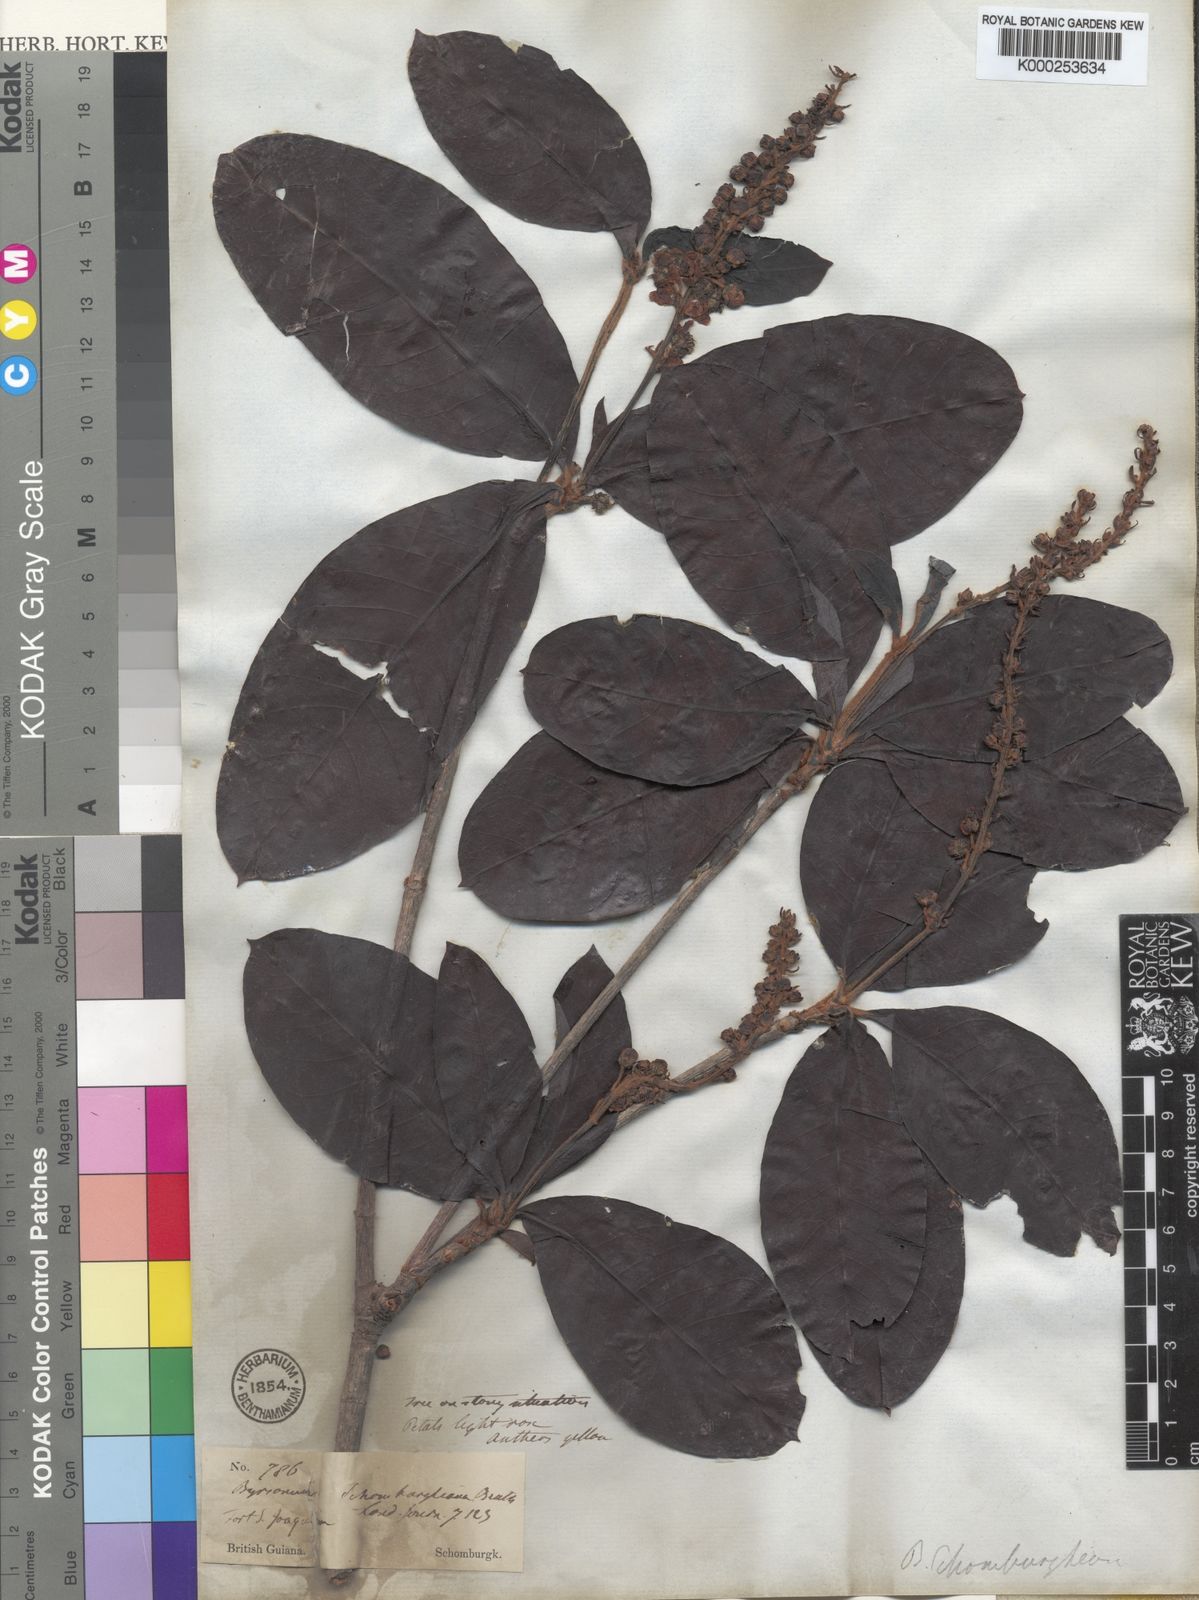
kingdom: Plantae
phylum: Tracheophyta
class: Magnoliopsida
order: Malpighiales
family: Malpighiaceae
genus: Byrsonima
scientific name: Byrsonima schomburgkiana
